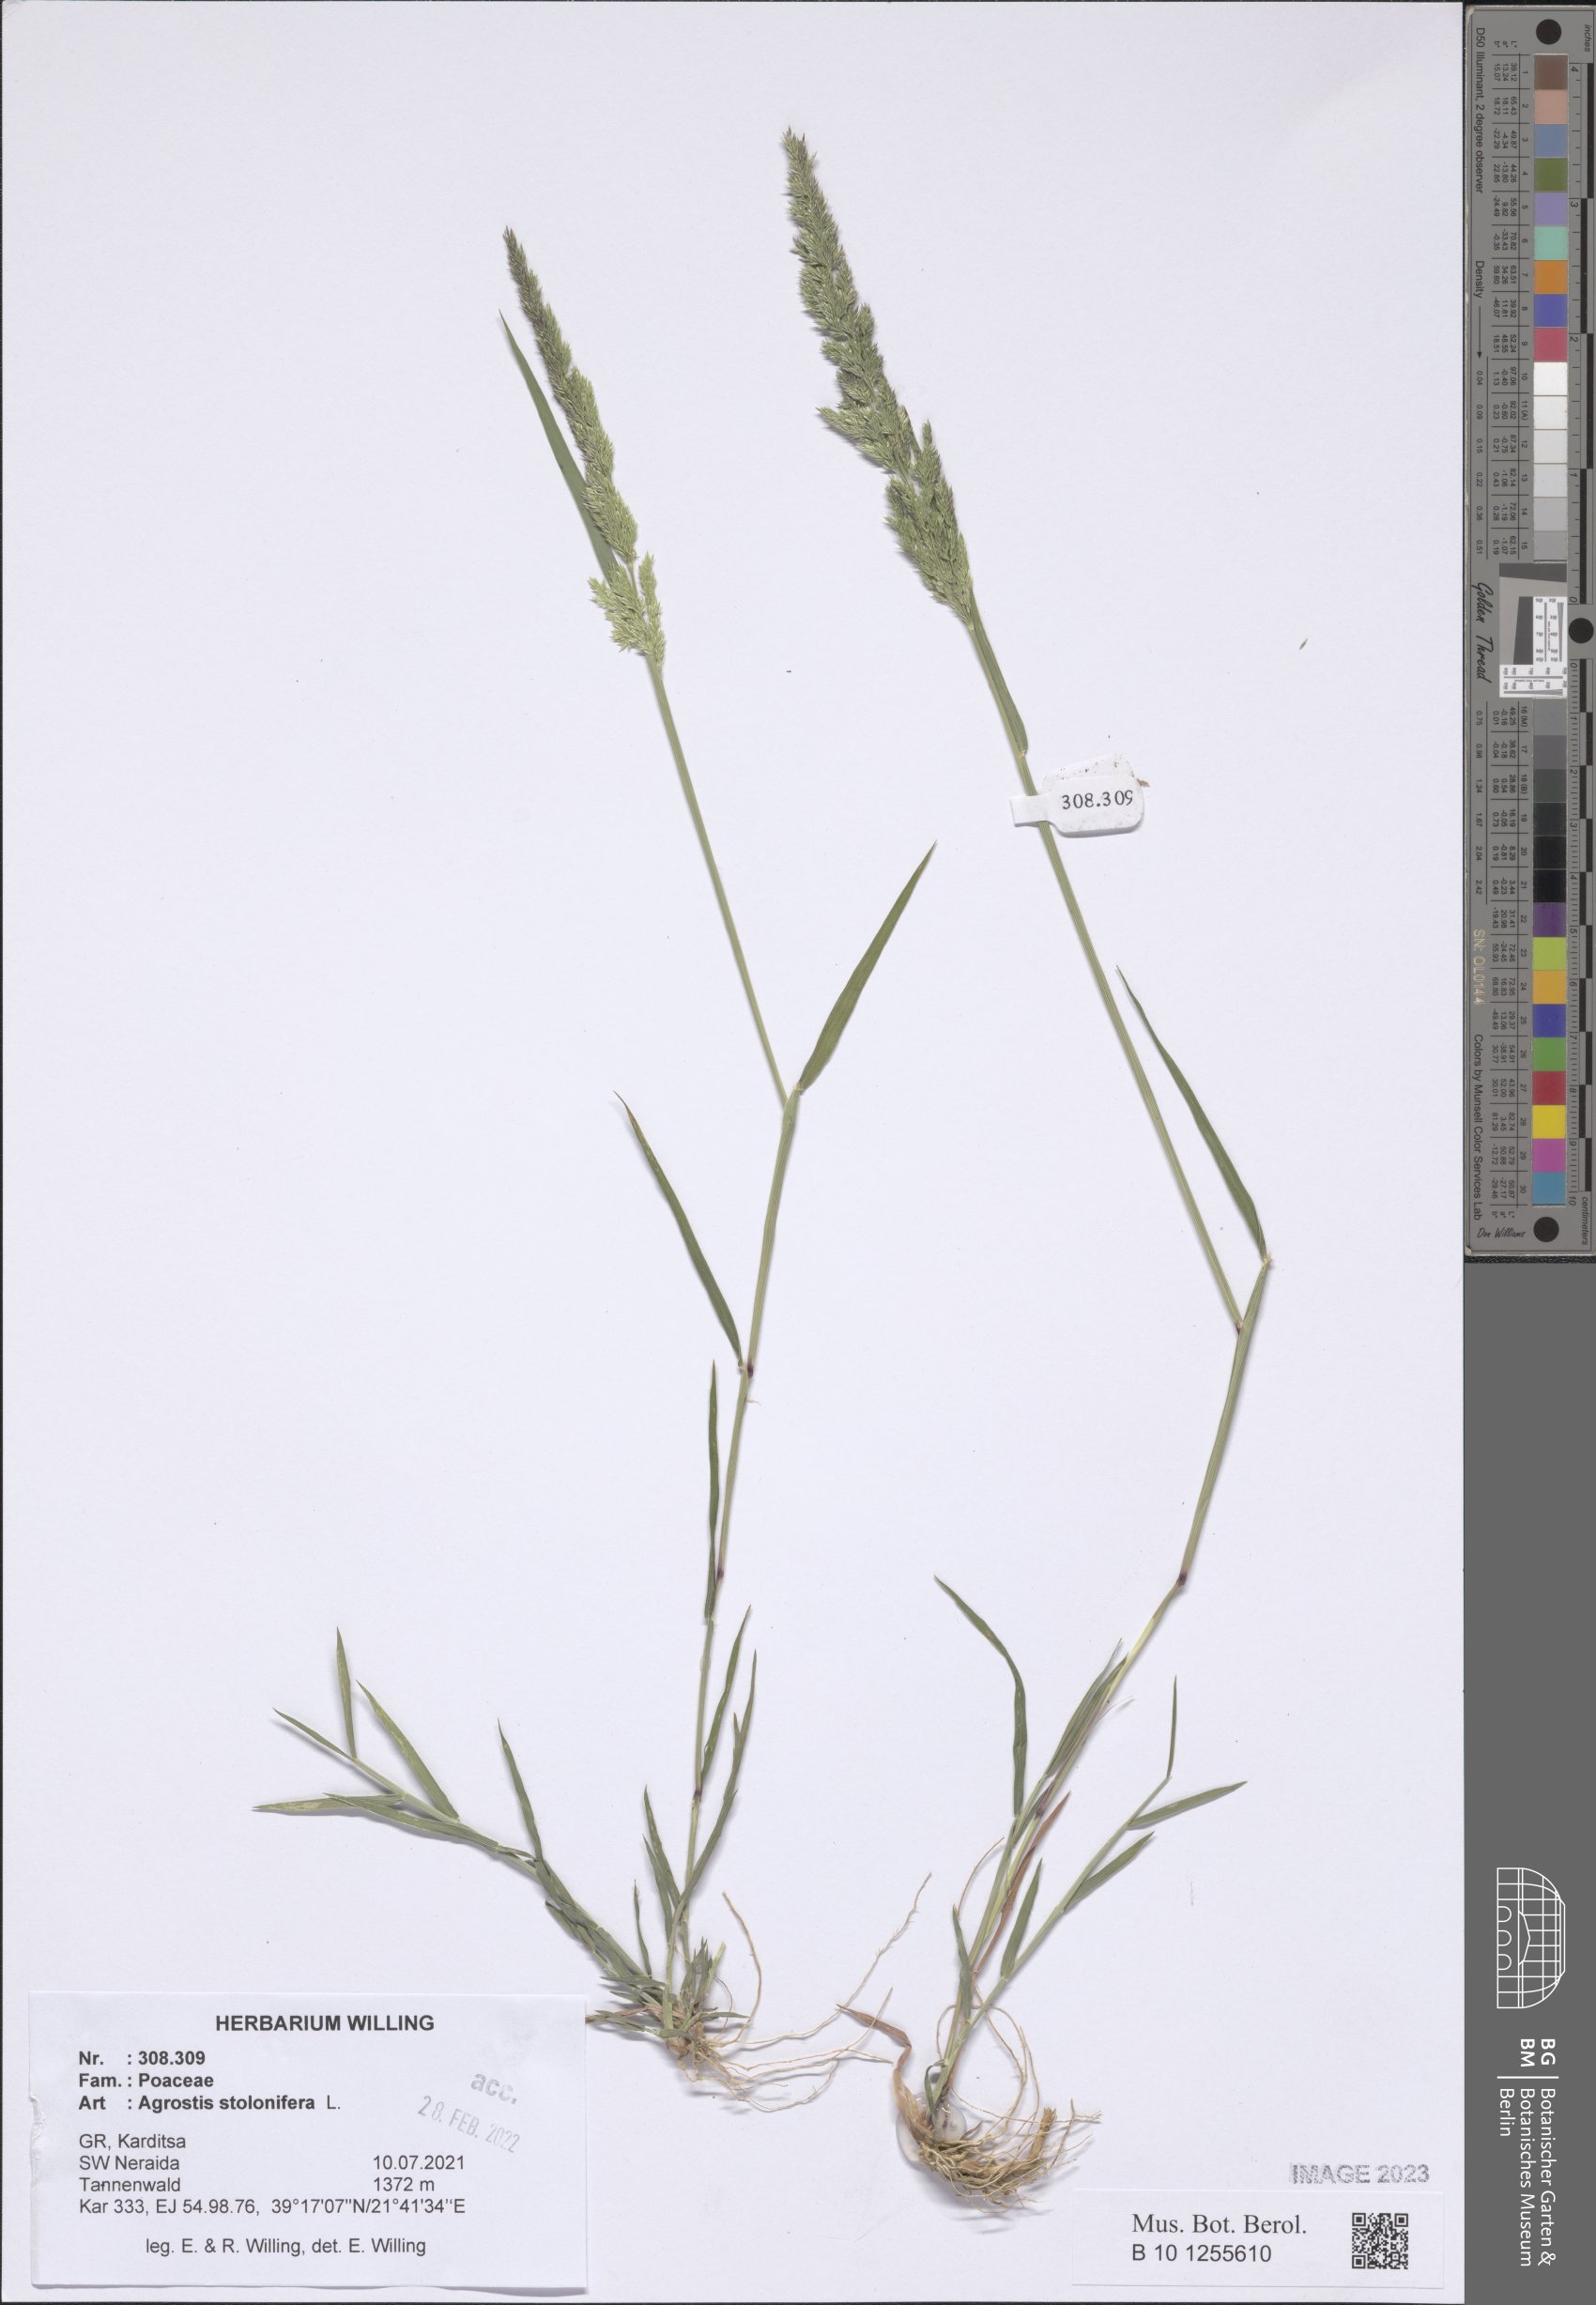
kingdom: Plantae
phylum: Tracheophyta
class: Liliopsida
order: Poales
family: Poaceae
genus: Agrostis
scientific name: Agrostis stolonifera
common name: Creeping bentgrass
